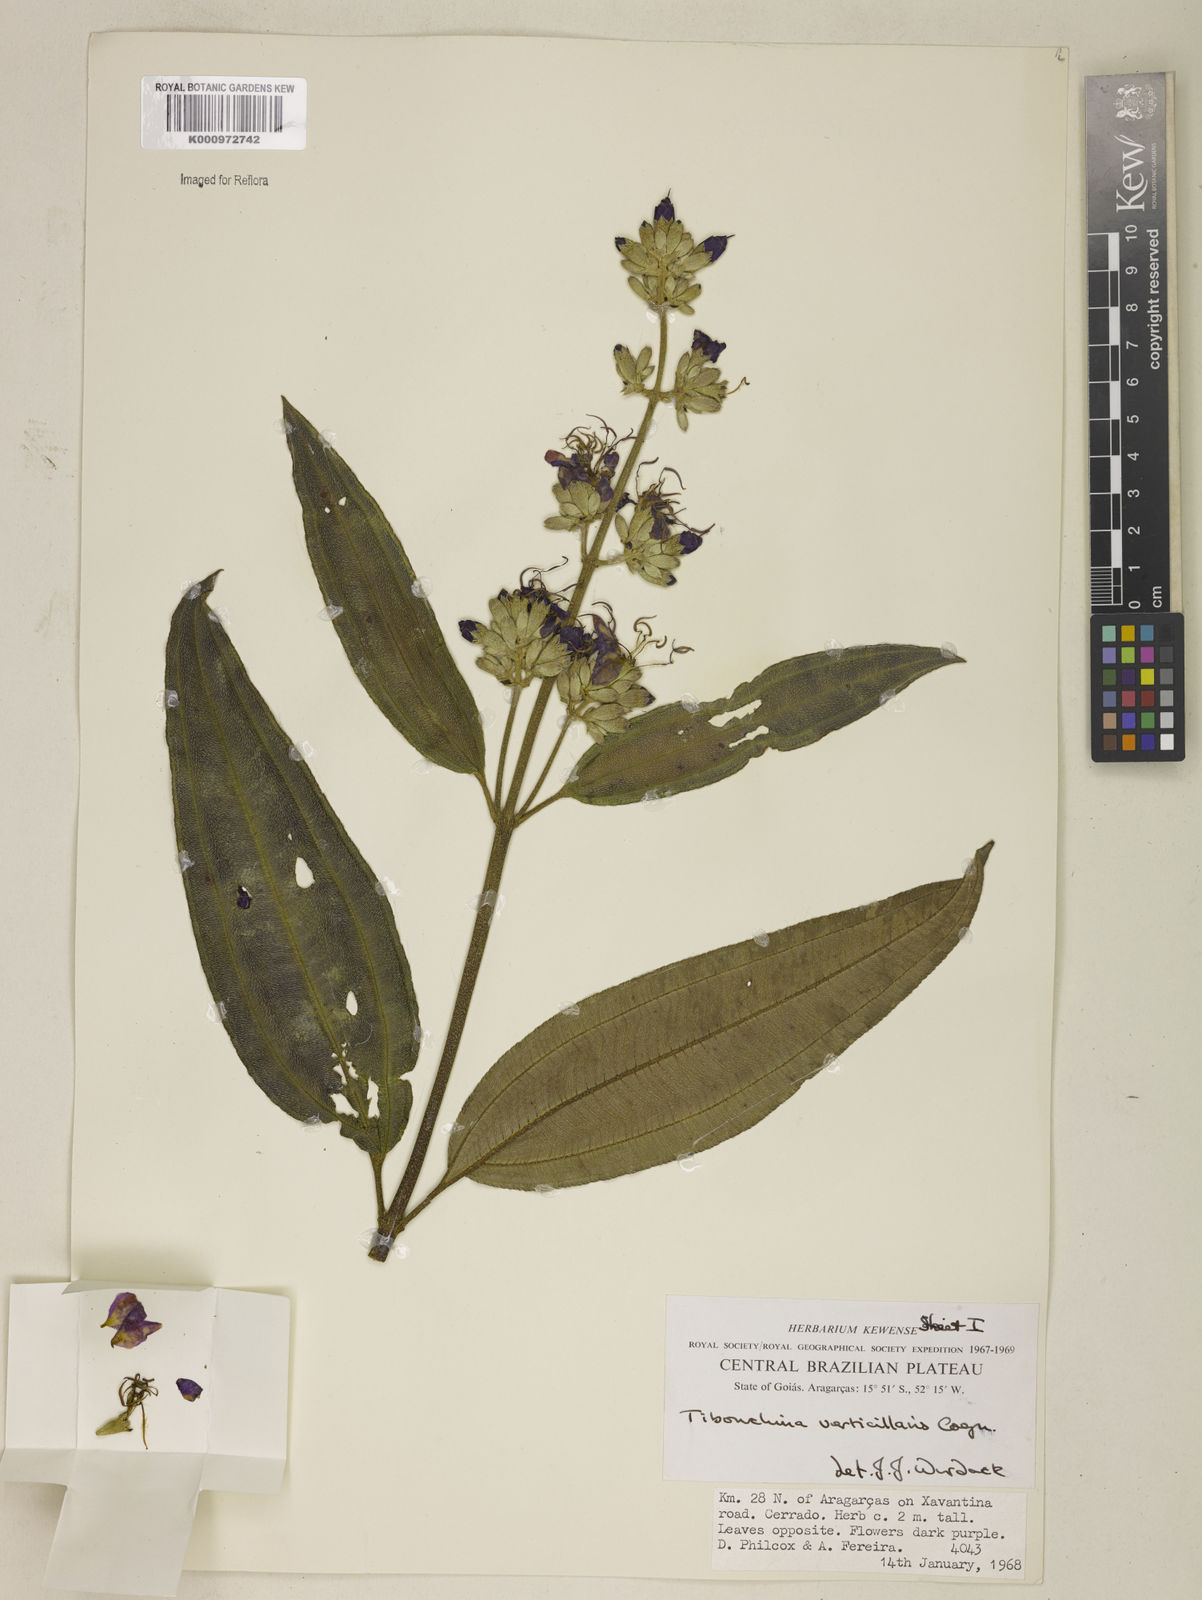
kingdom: Plantae
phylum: Tracheophyta
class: Magnoliopsida
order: Myrtales
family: Melastomataceae
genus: Tibouchina
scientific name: Tibouchina verticillaris
